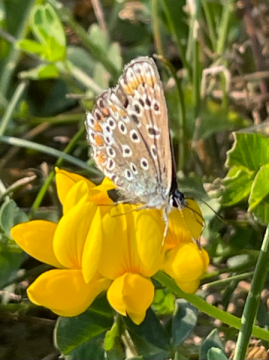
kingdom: Animalia
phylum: Arthropoda
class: Insecta
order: Lepidoptera
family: Lycaenidae
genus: Polyommatus
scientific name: Polyommatus icarus
